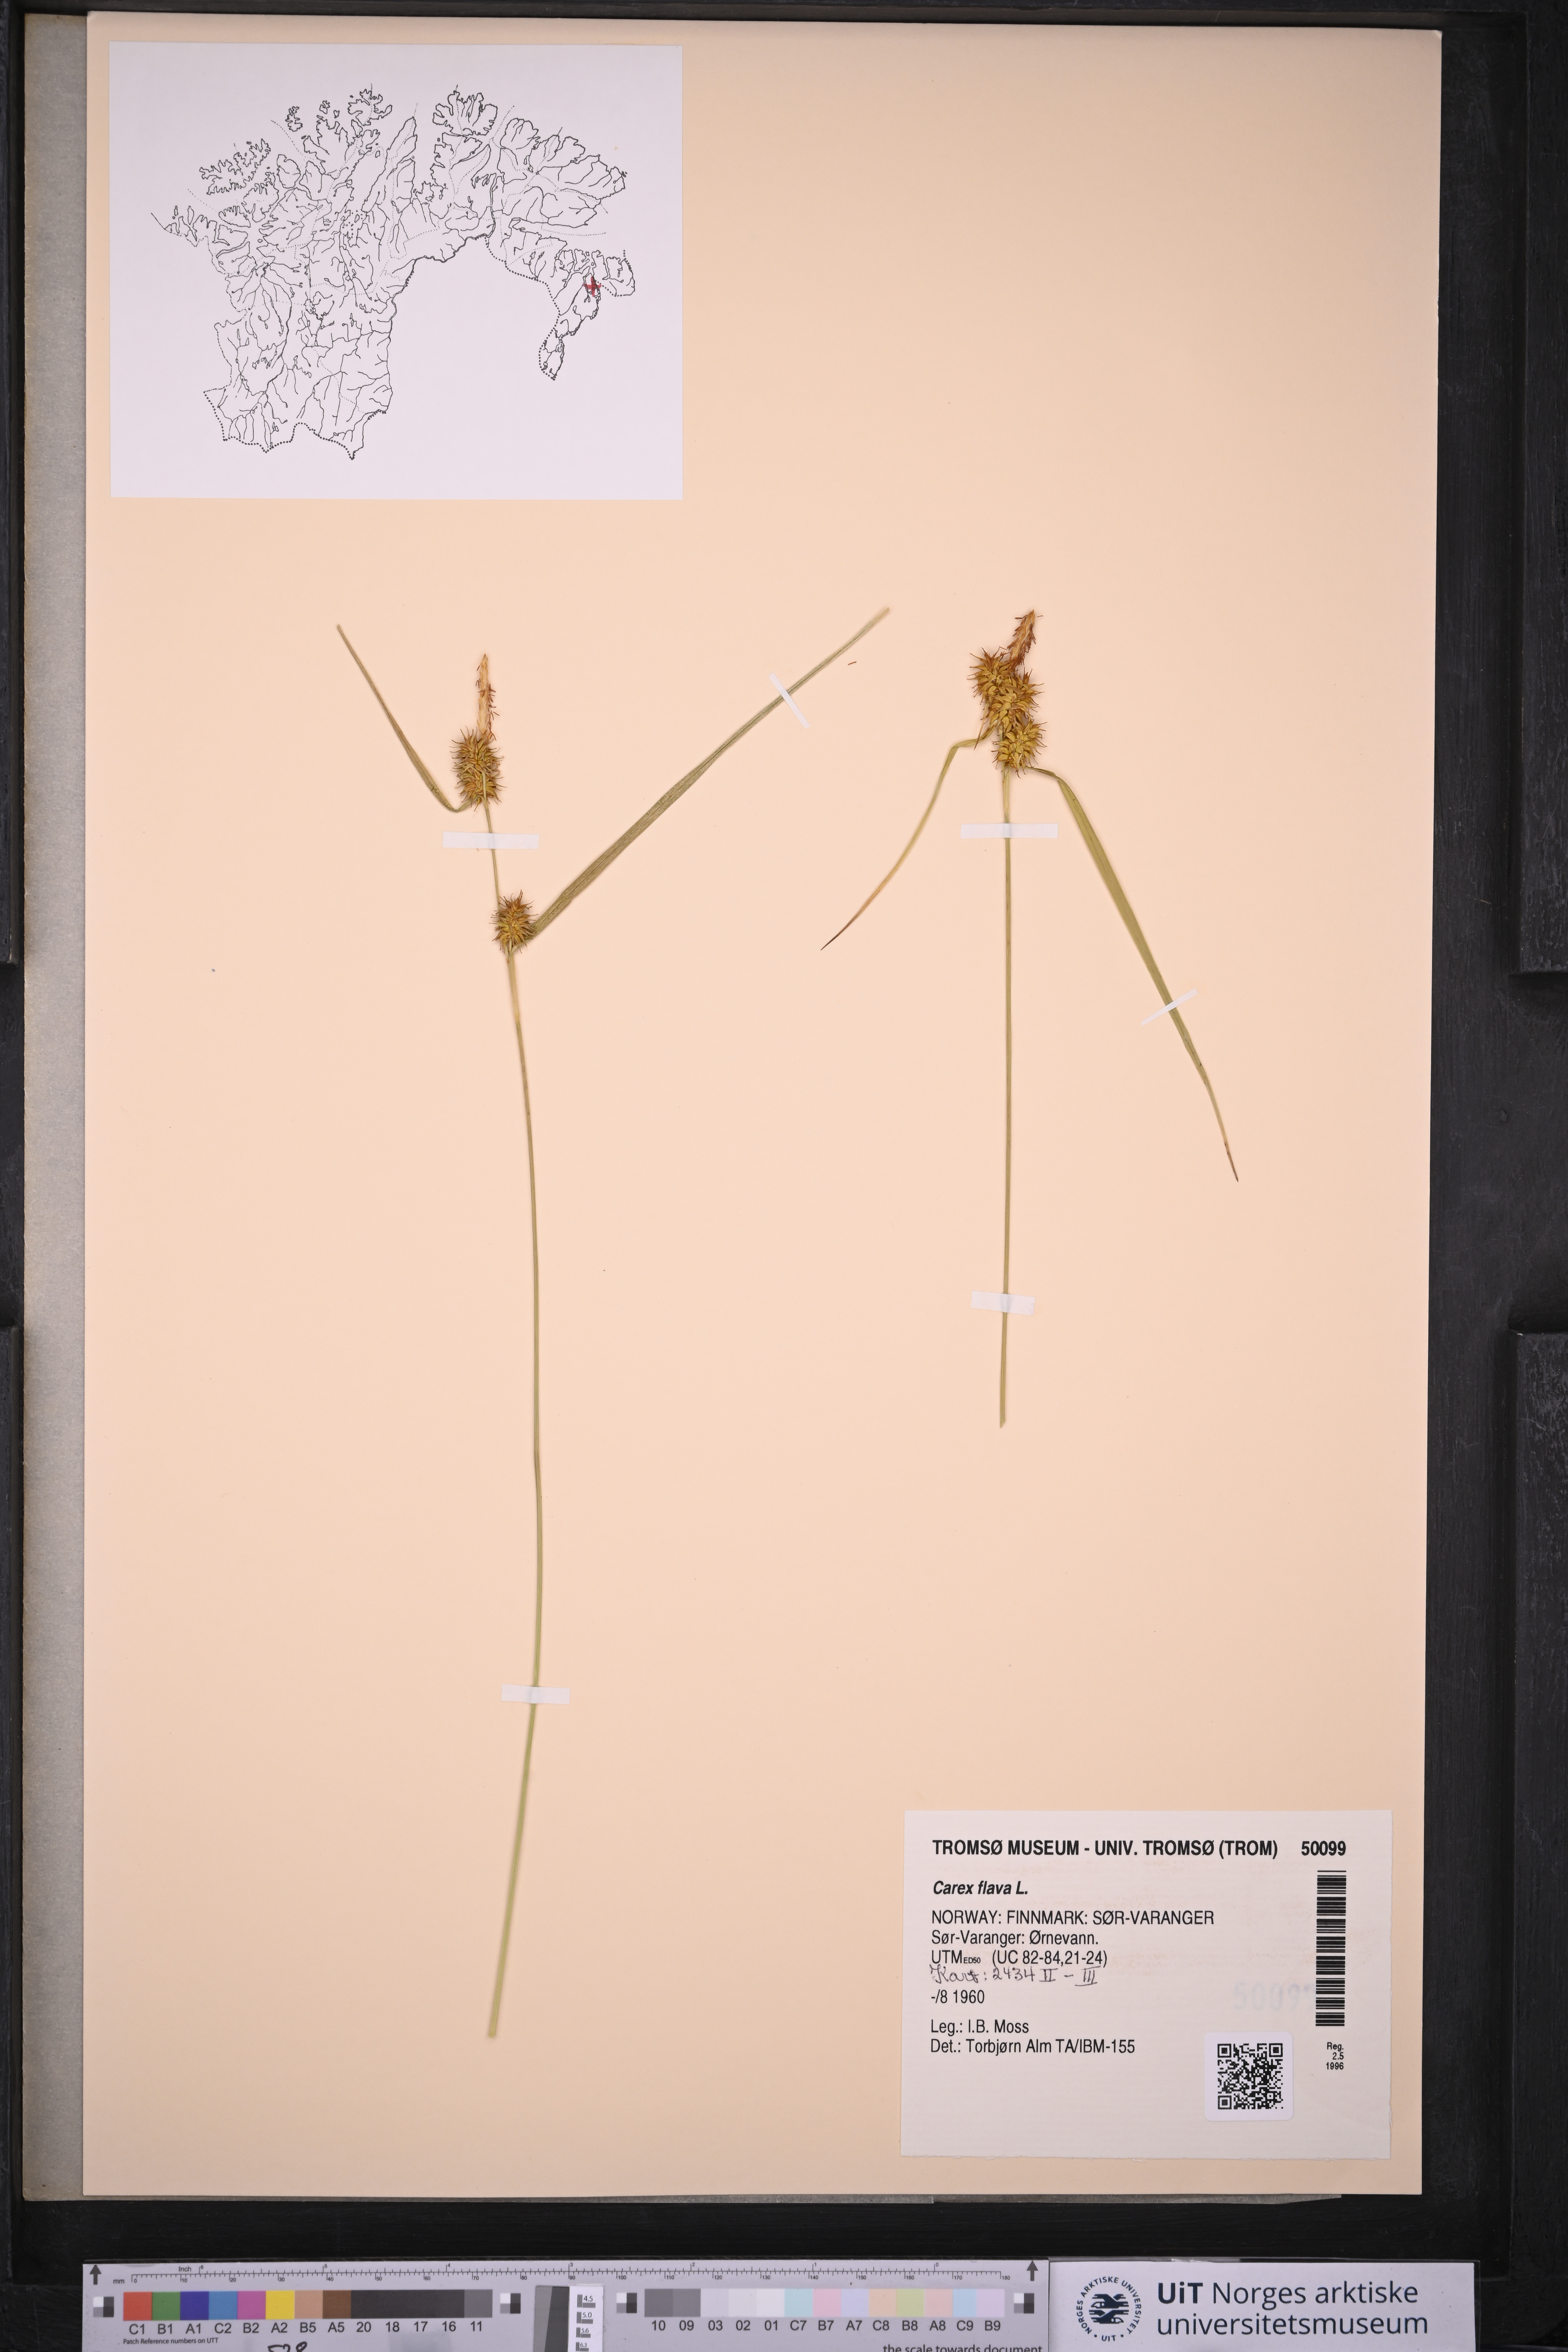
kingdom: Plantae
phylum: Tracheophyta
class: Liliopsida
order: Poales
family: Cyperaceae
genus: Carex
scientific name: Carex flava
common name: Large yellow-sedge
